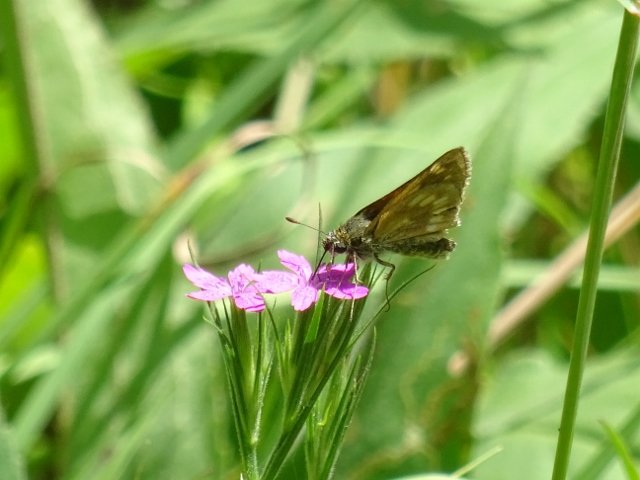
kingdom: Animalia
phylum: Arthropoda
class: Insecta
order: Lepidoptera
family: Hesperiidae
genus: Polites
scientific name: Polites
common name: Long Dash Skipper
